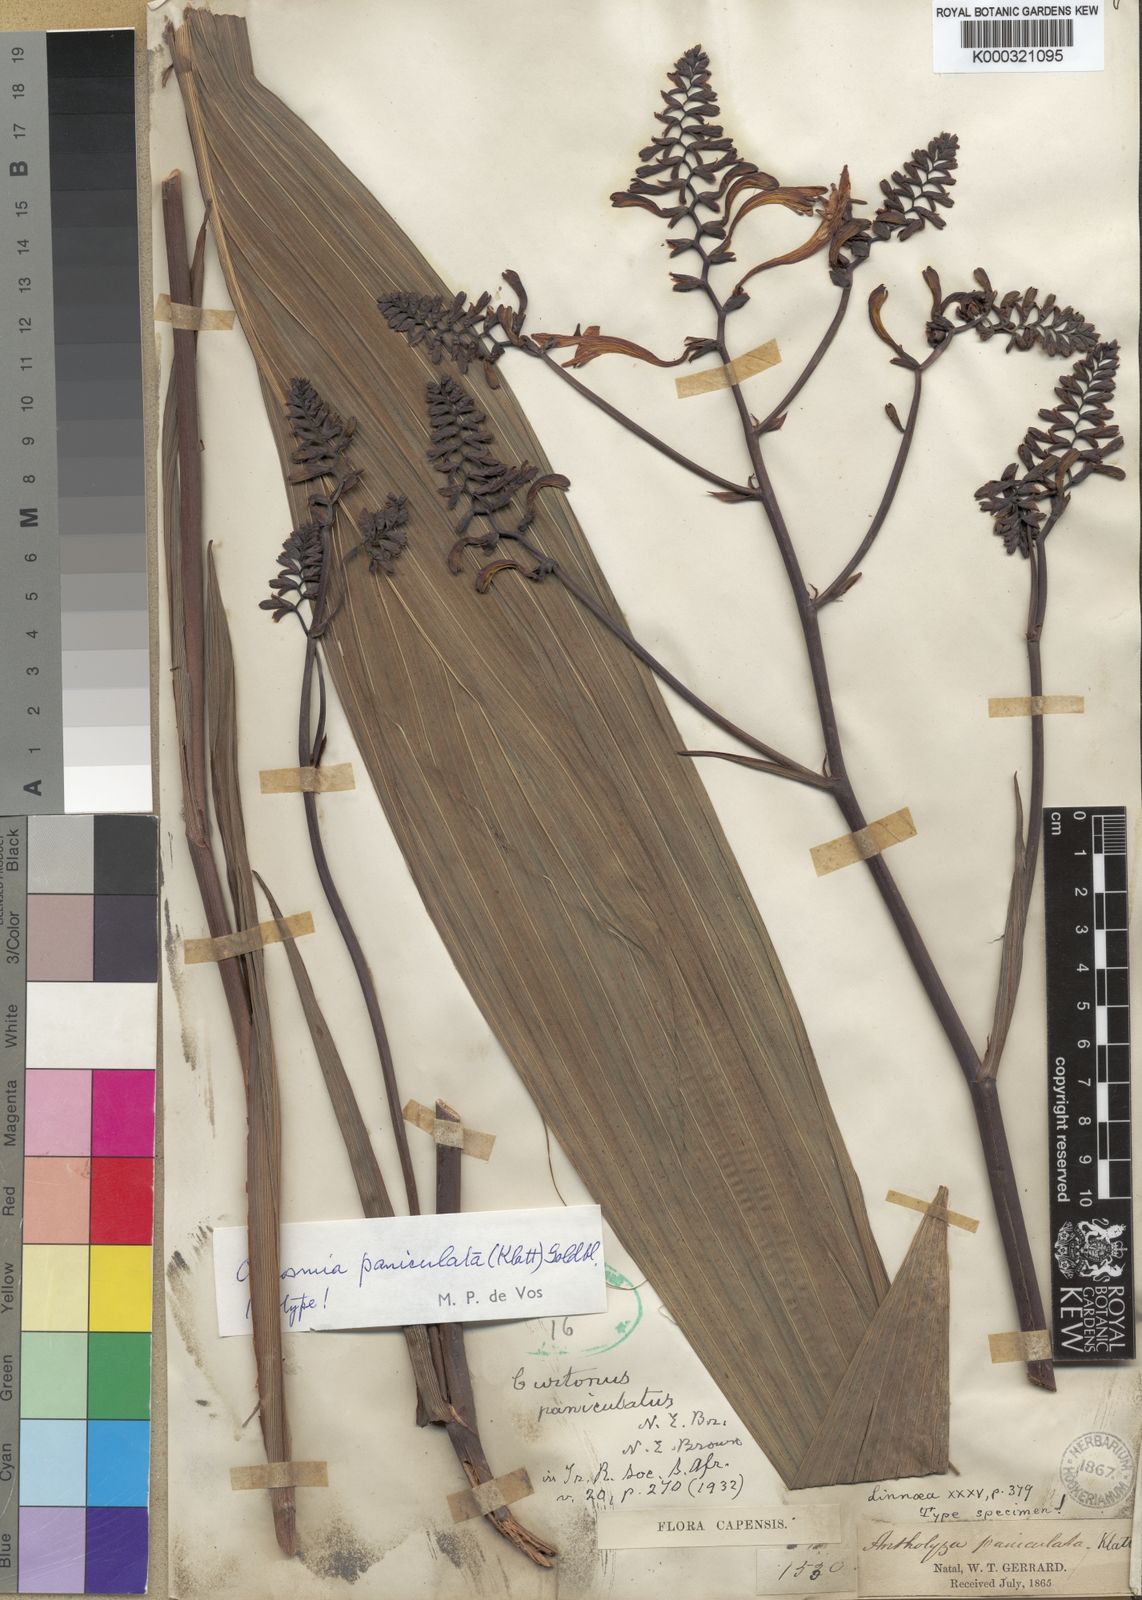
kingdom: Plantae
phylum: Tracheophyta
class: Liliopsida
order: Asparagales
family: Iridaceae
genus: Crocosmia
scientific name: Crocosmia paniculata
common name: Aunt eliza
